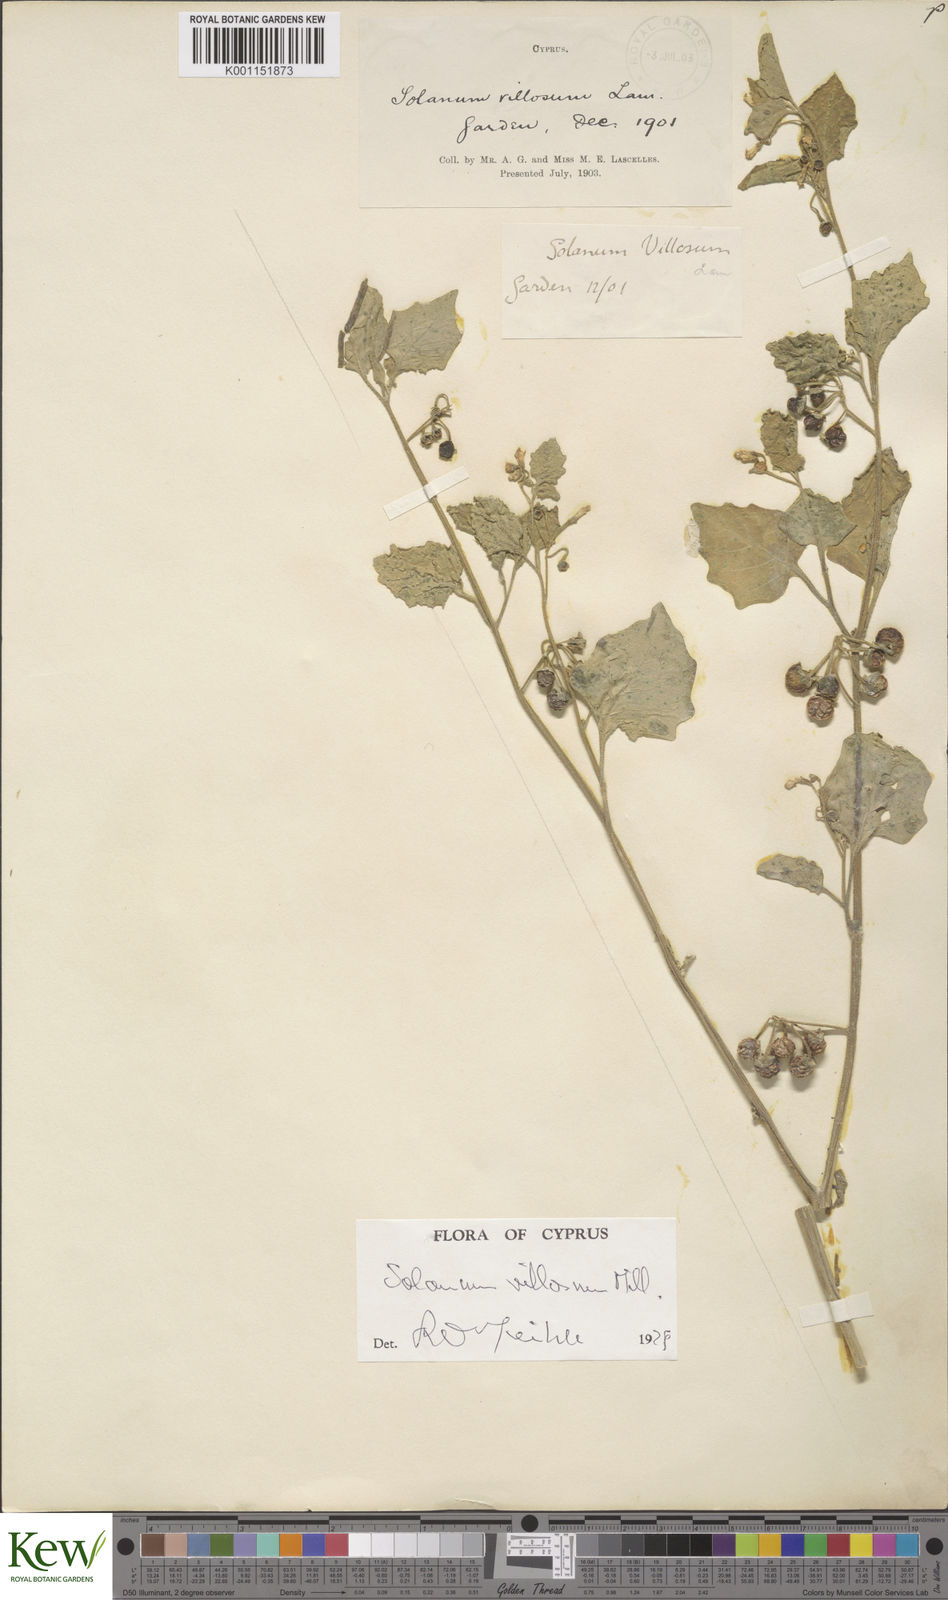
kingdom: Plantae
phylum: Tracheophyta
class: Magnoliopsida
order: Solanales
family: Solanaceae
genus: Solanum
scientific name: Solanum villosum
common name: Red nightshade
